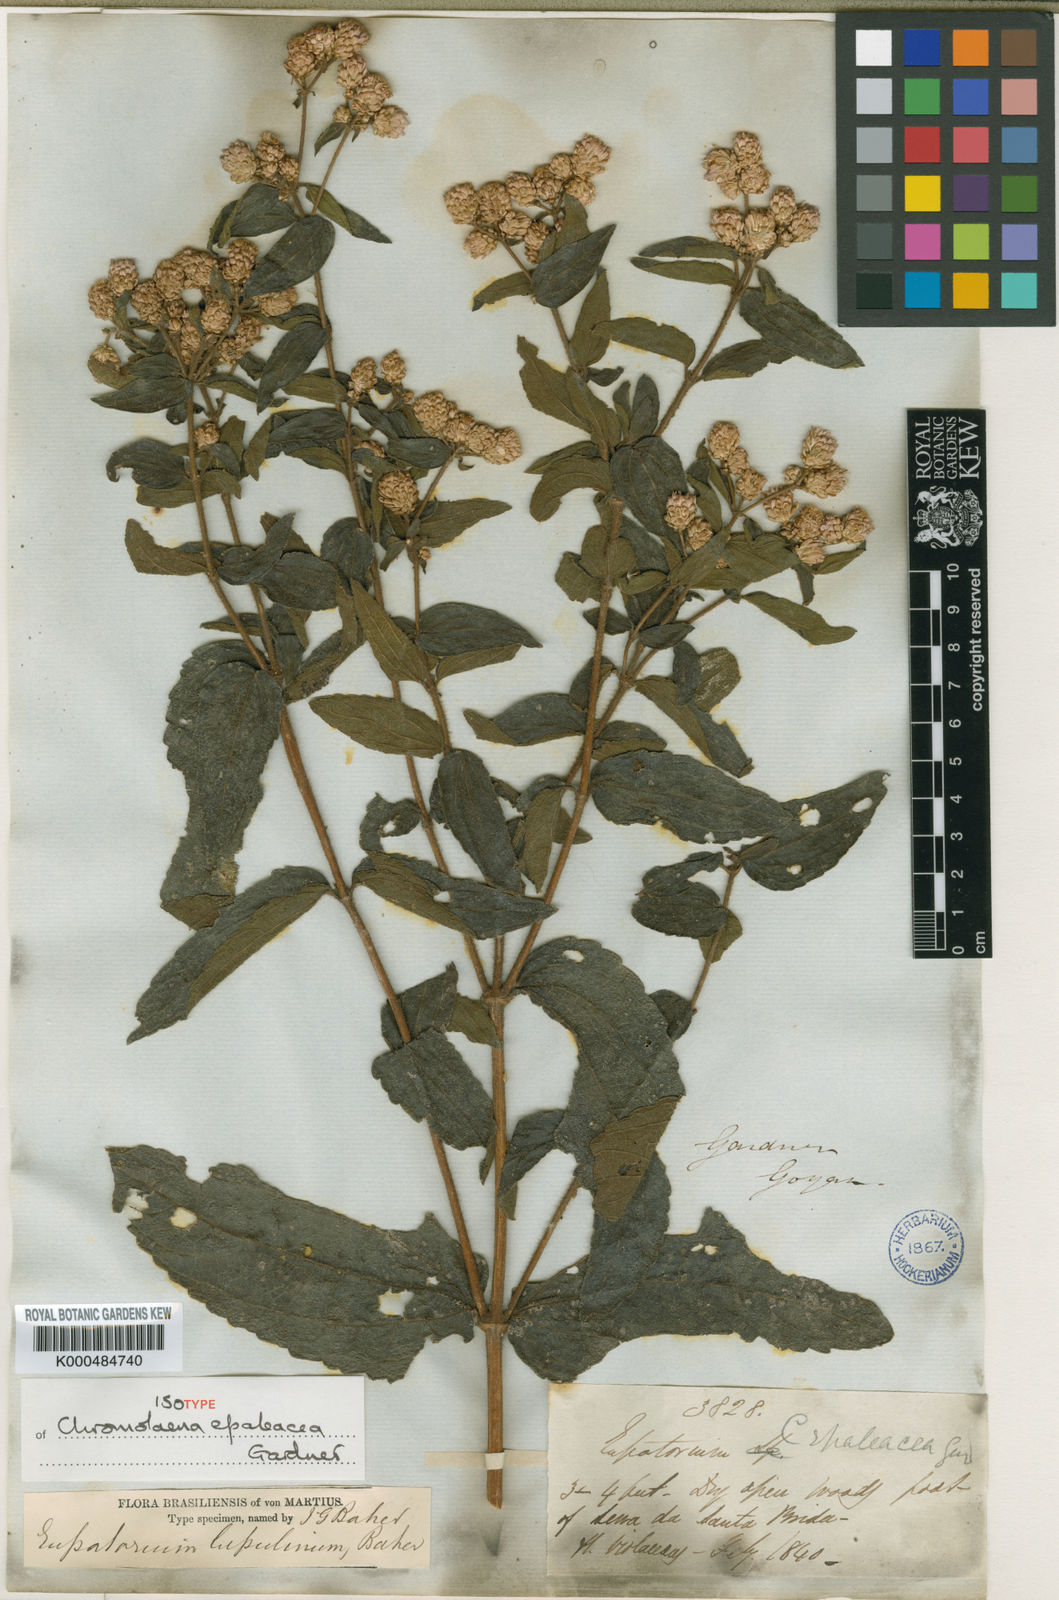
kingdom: Plantae
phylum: Tracheophyta
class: Magnoliopsida
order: Asterales
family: Asteraceae
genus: Chromolaena
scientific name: Chromolaena epaleacea
